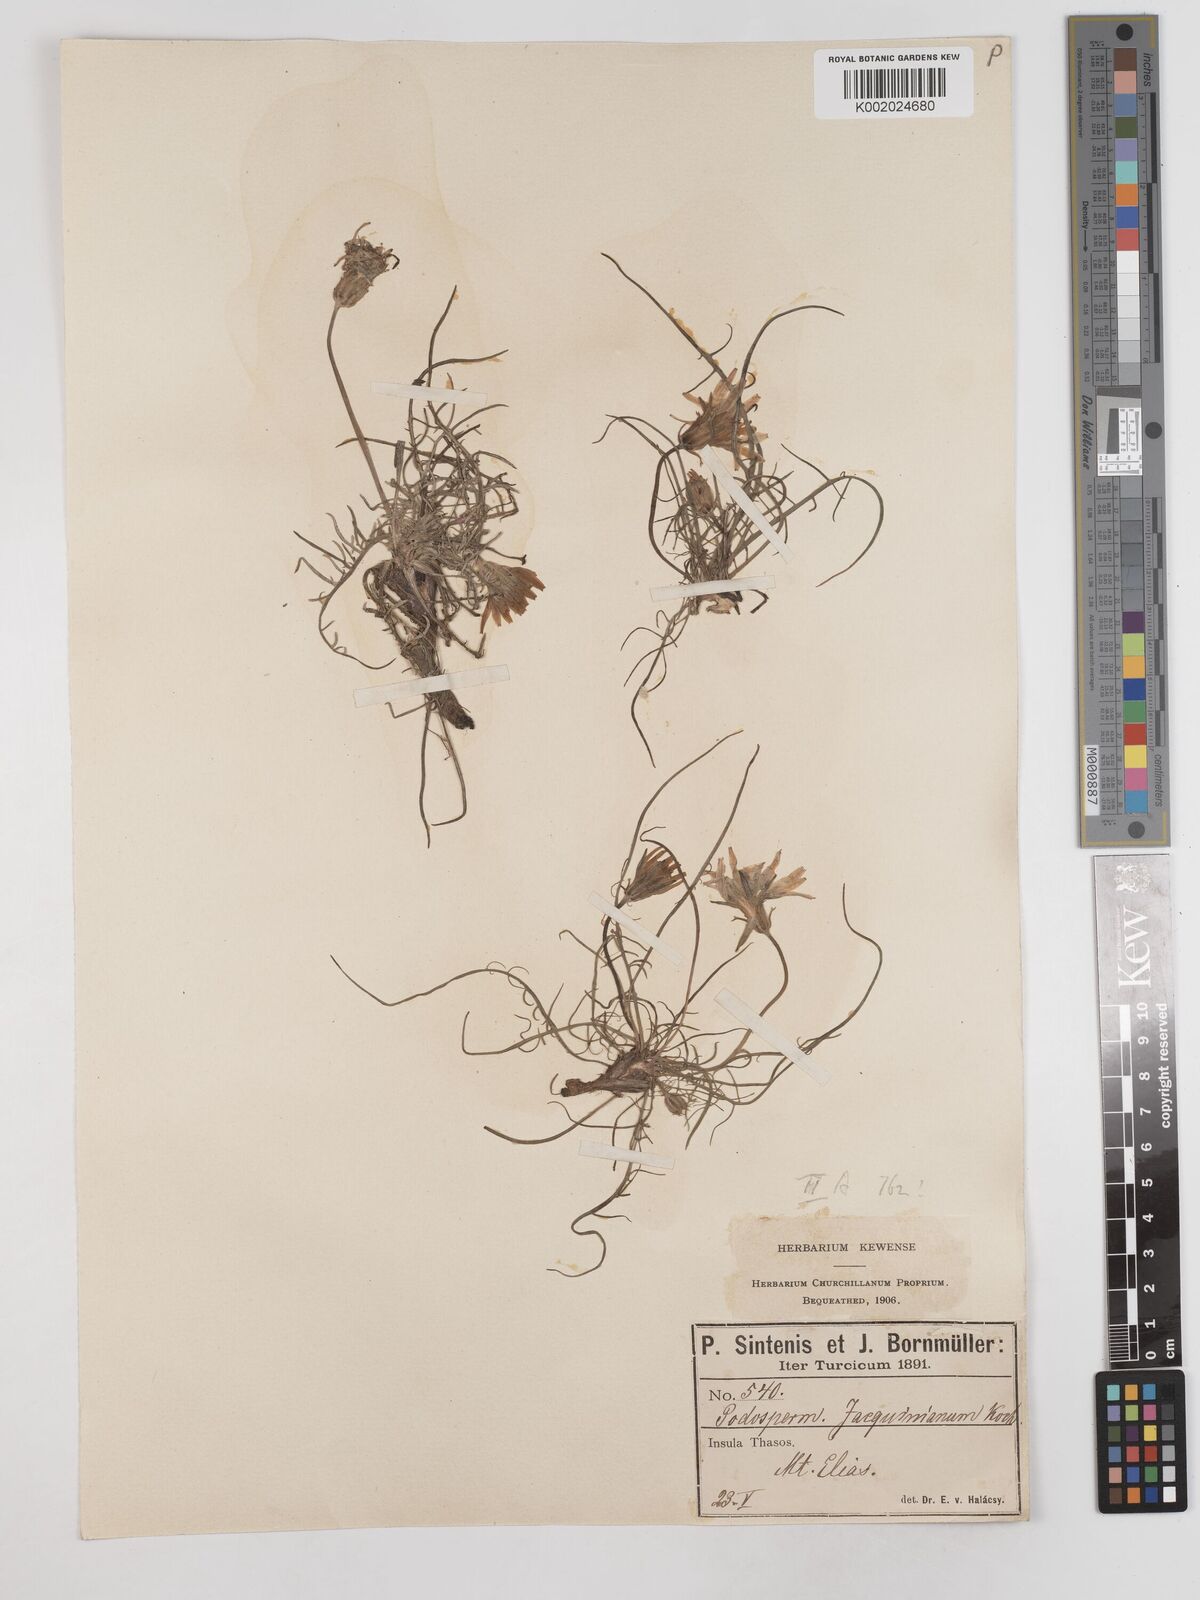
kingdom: Plantae
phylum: Tracheophyta
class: Magnoliopsida
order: Asterales
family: Asteraceae
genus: Scorzonera
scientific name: Scorzonera cana
